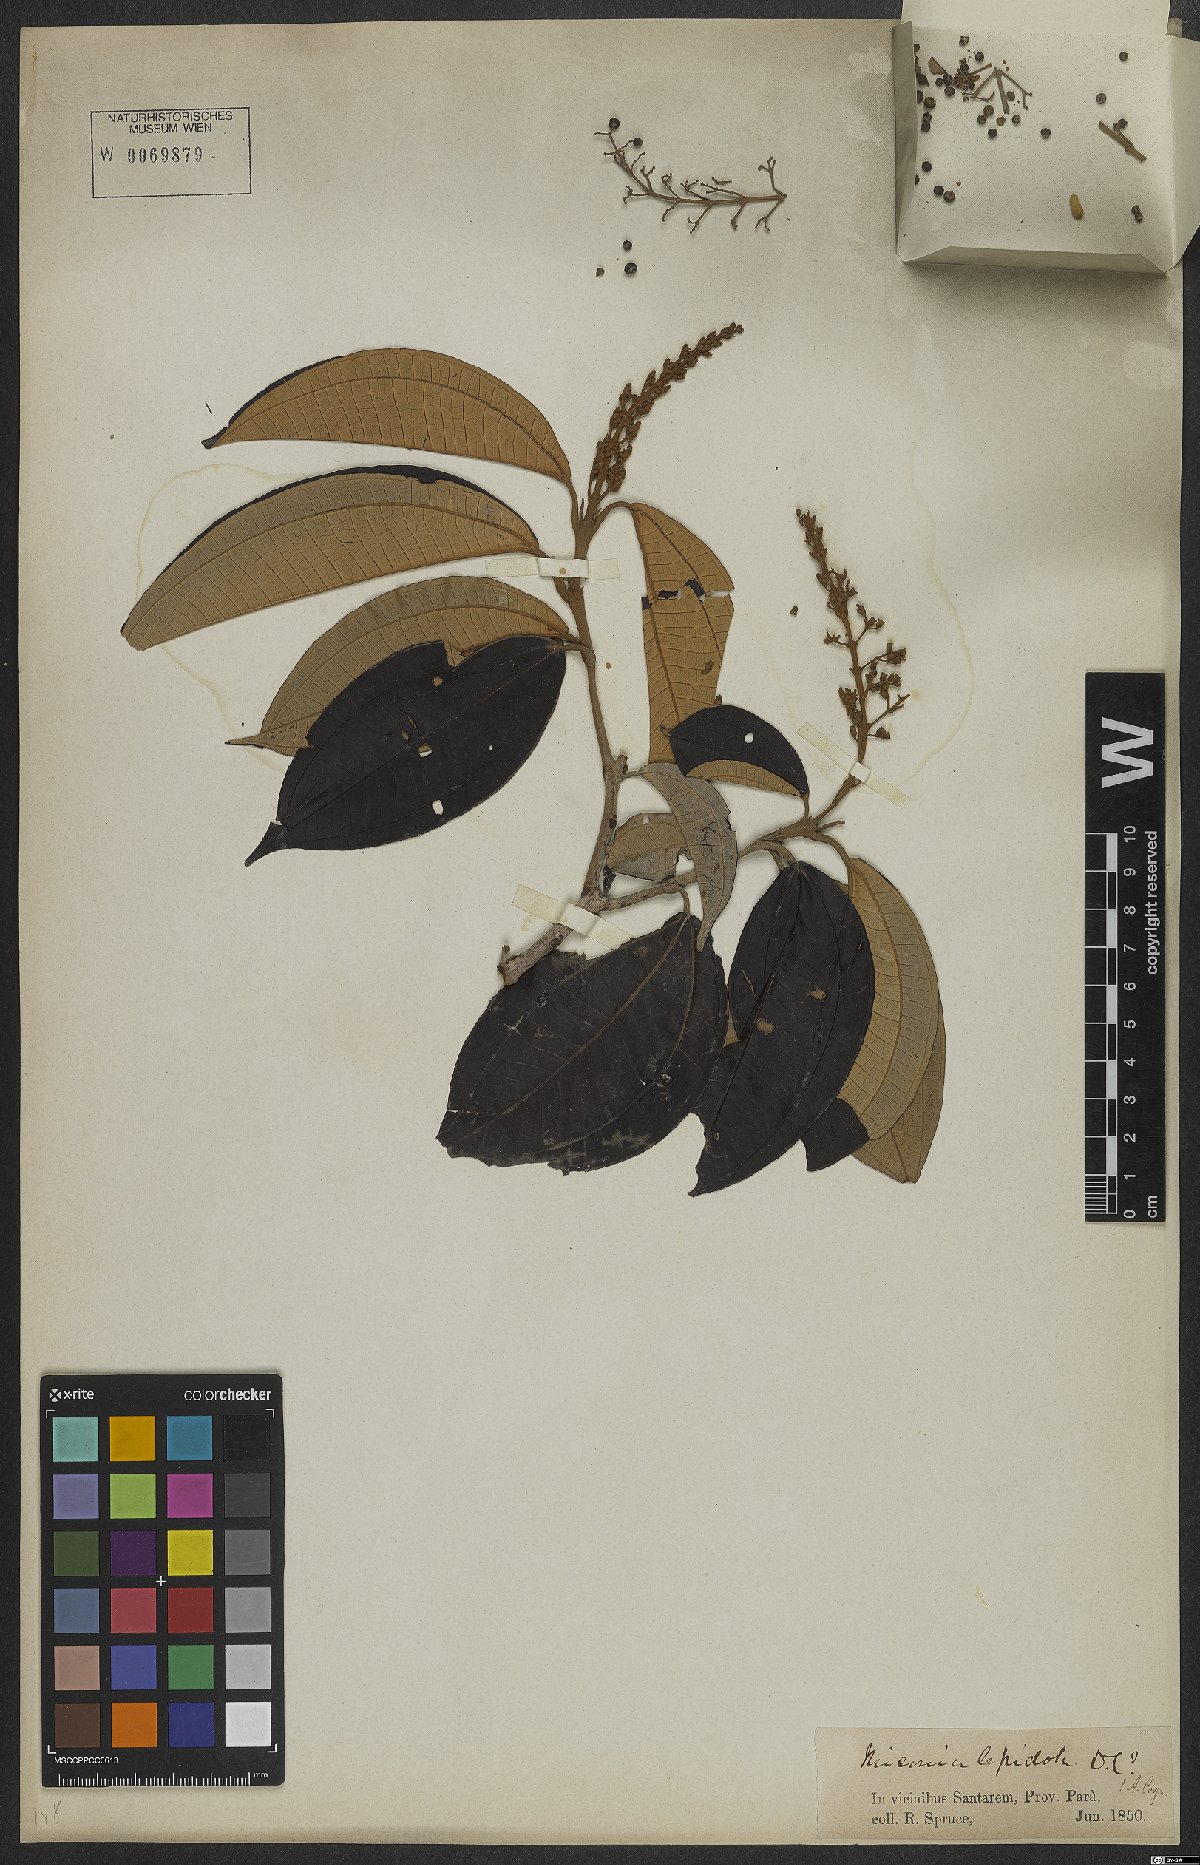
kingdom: Plantae
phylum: Tracheophyta
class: Magnoliopsida
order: Myrtales
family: Melastomataceae
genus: Miconia
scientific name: Miconia lepidota
